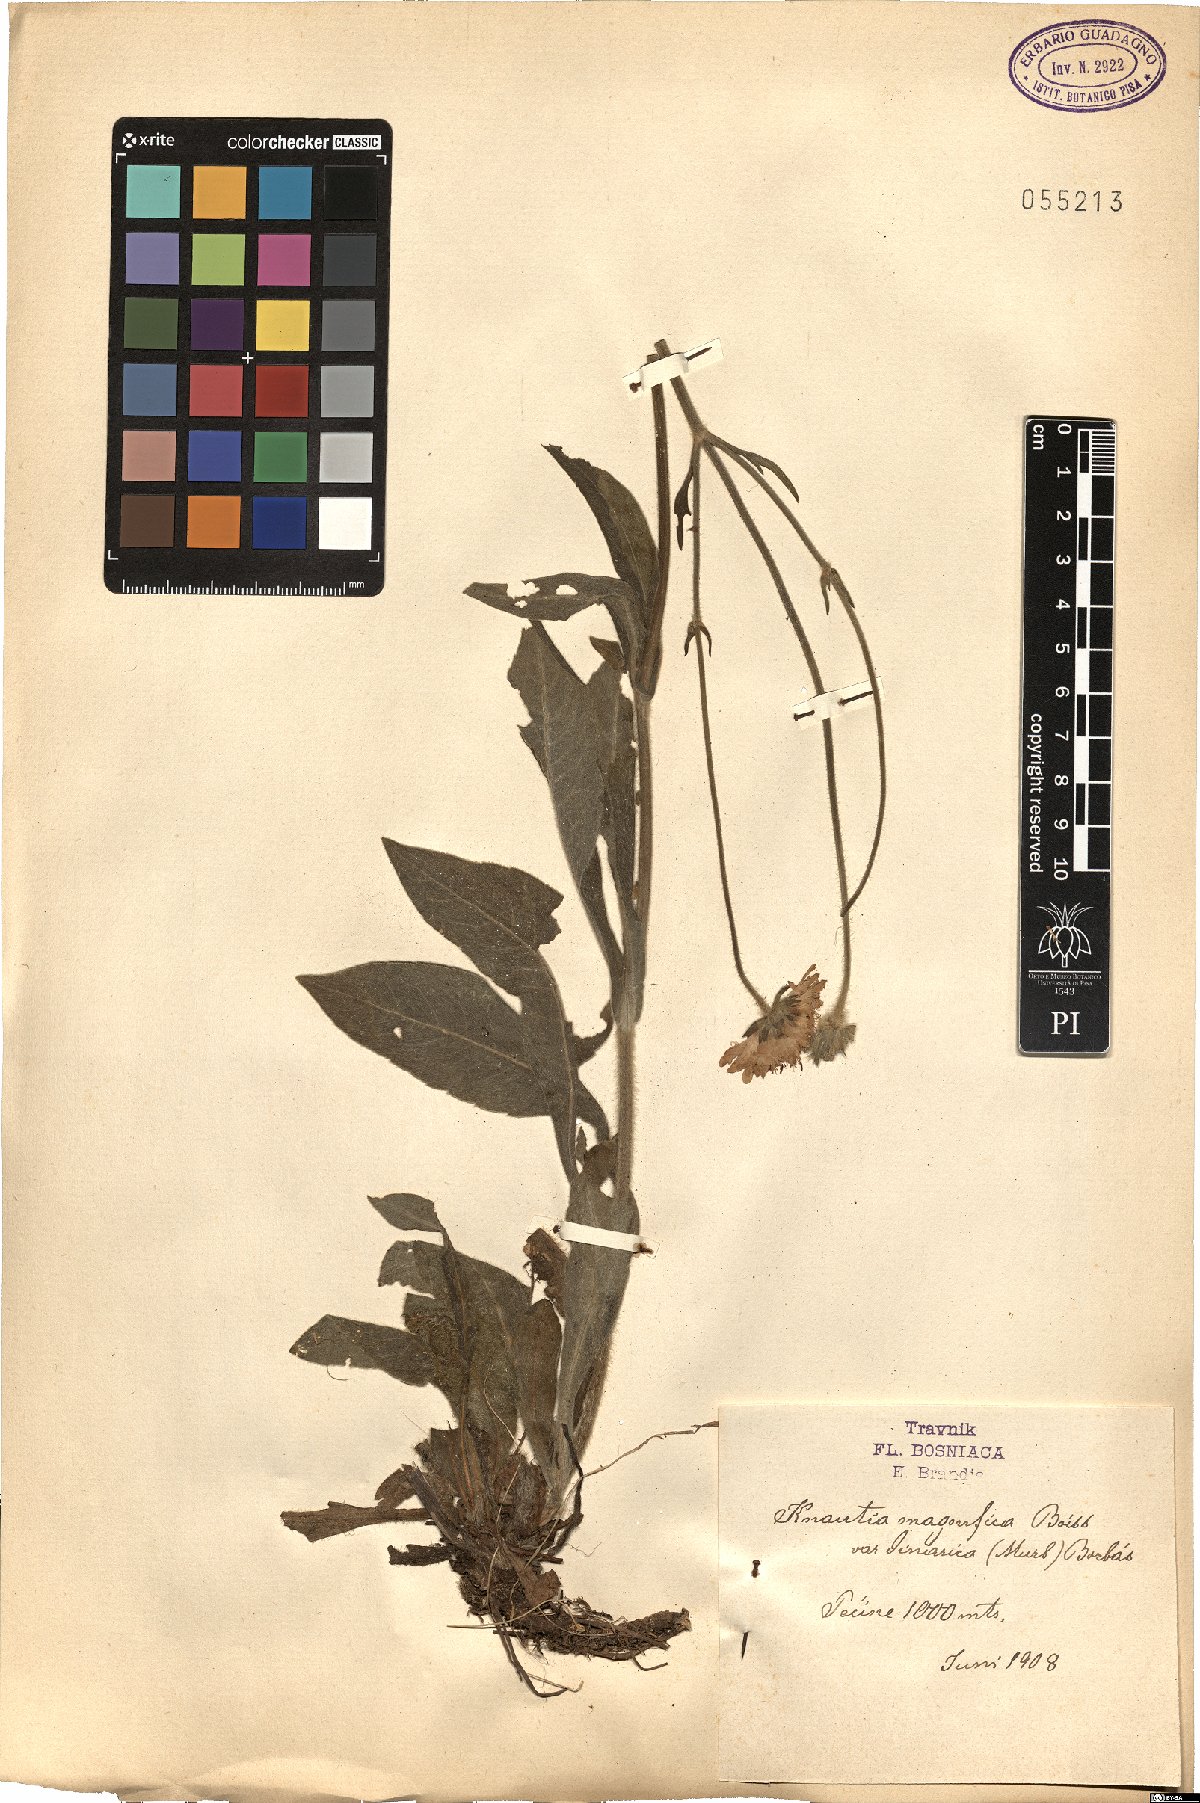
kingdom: Plantae
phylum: Tracheophyta
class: Magnoliopsida
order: Dipsacales
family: Caprifoliaceae
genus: Knautia
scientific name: Knautia magnifica
